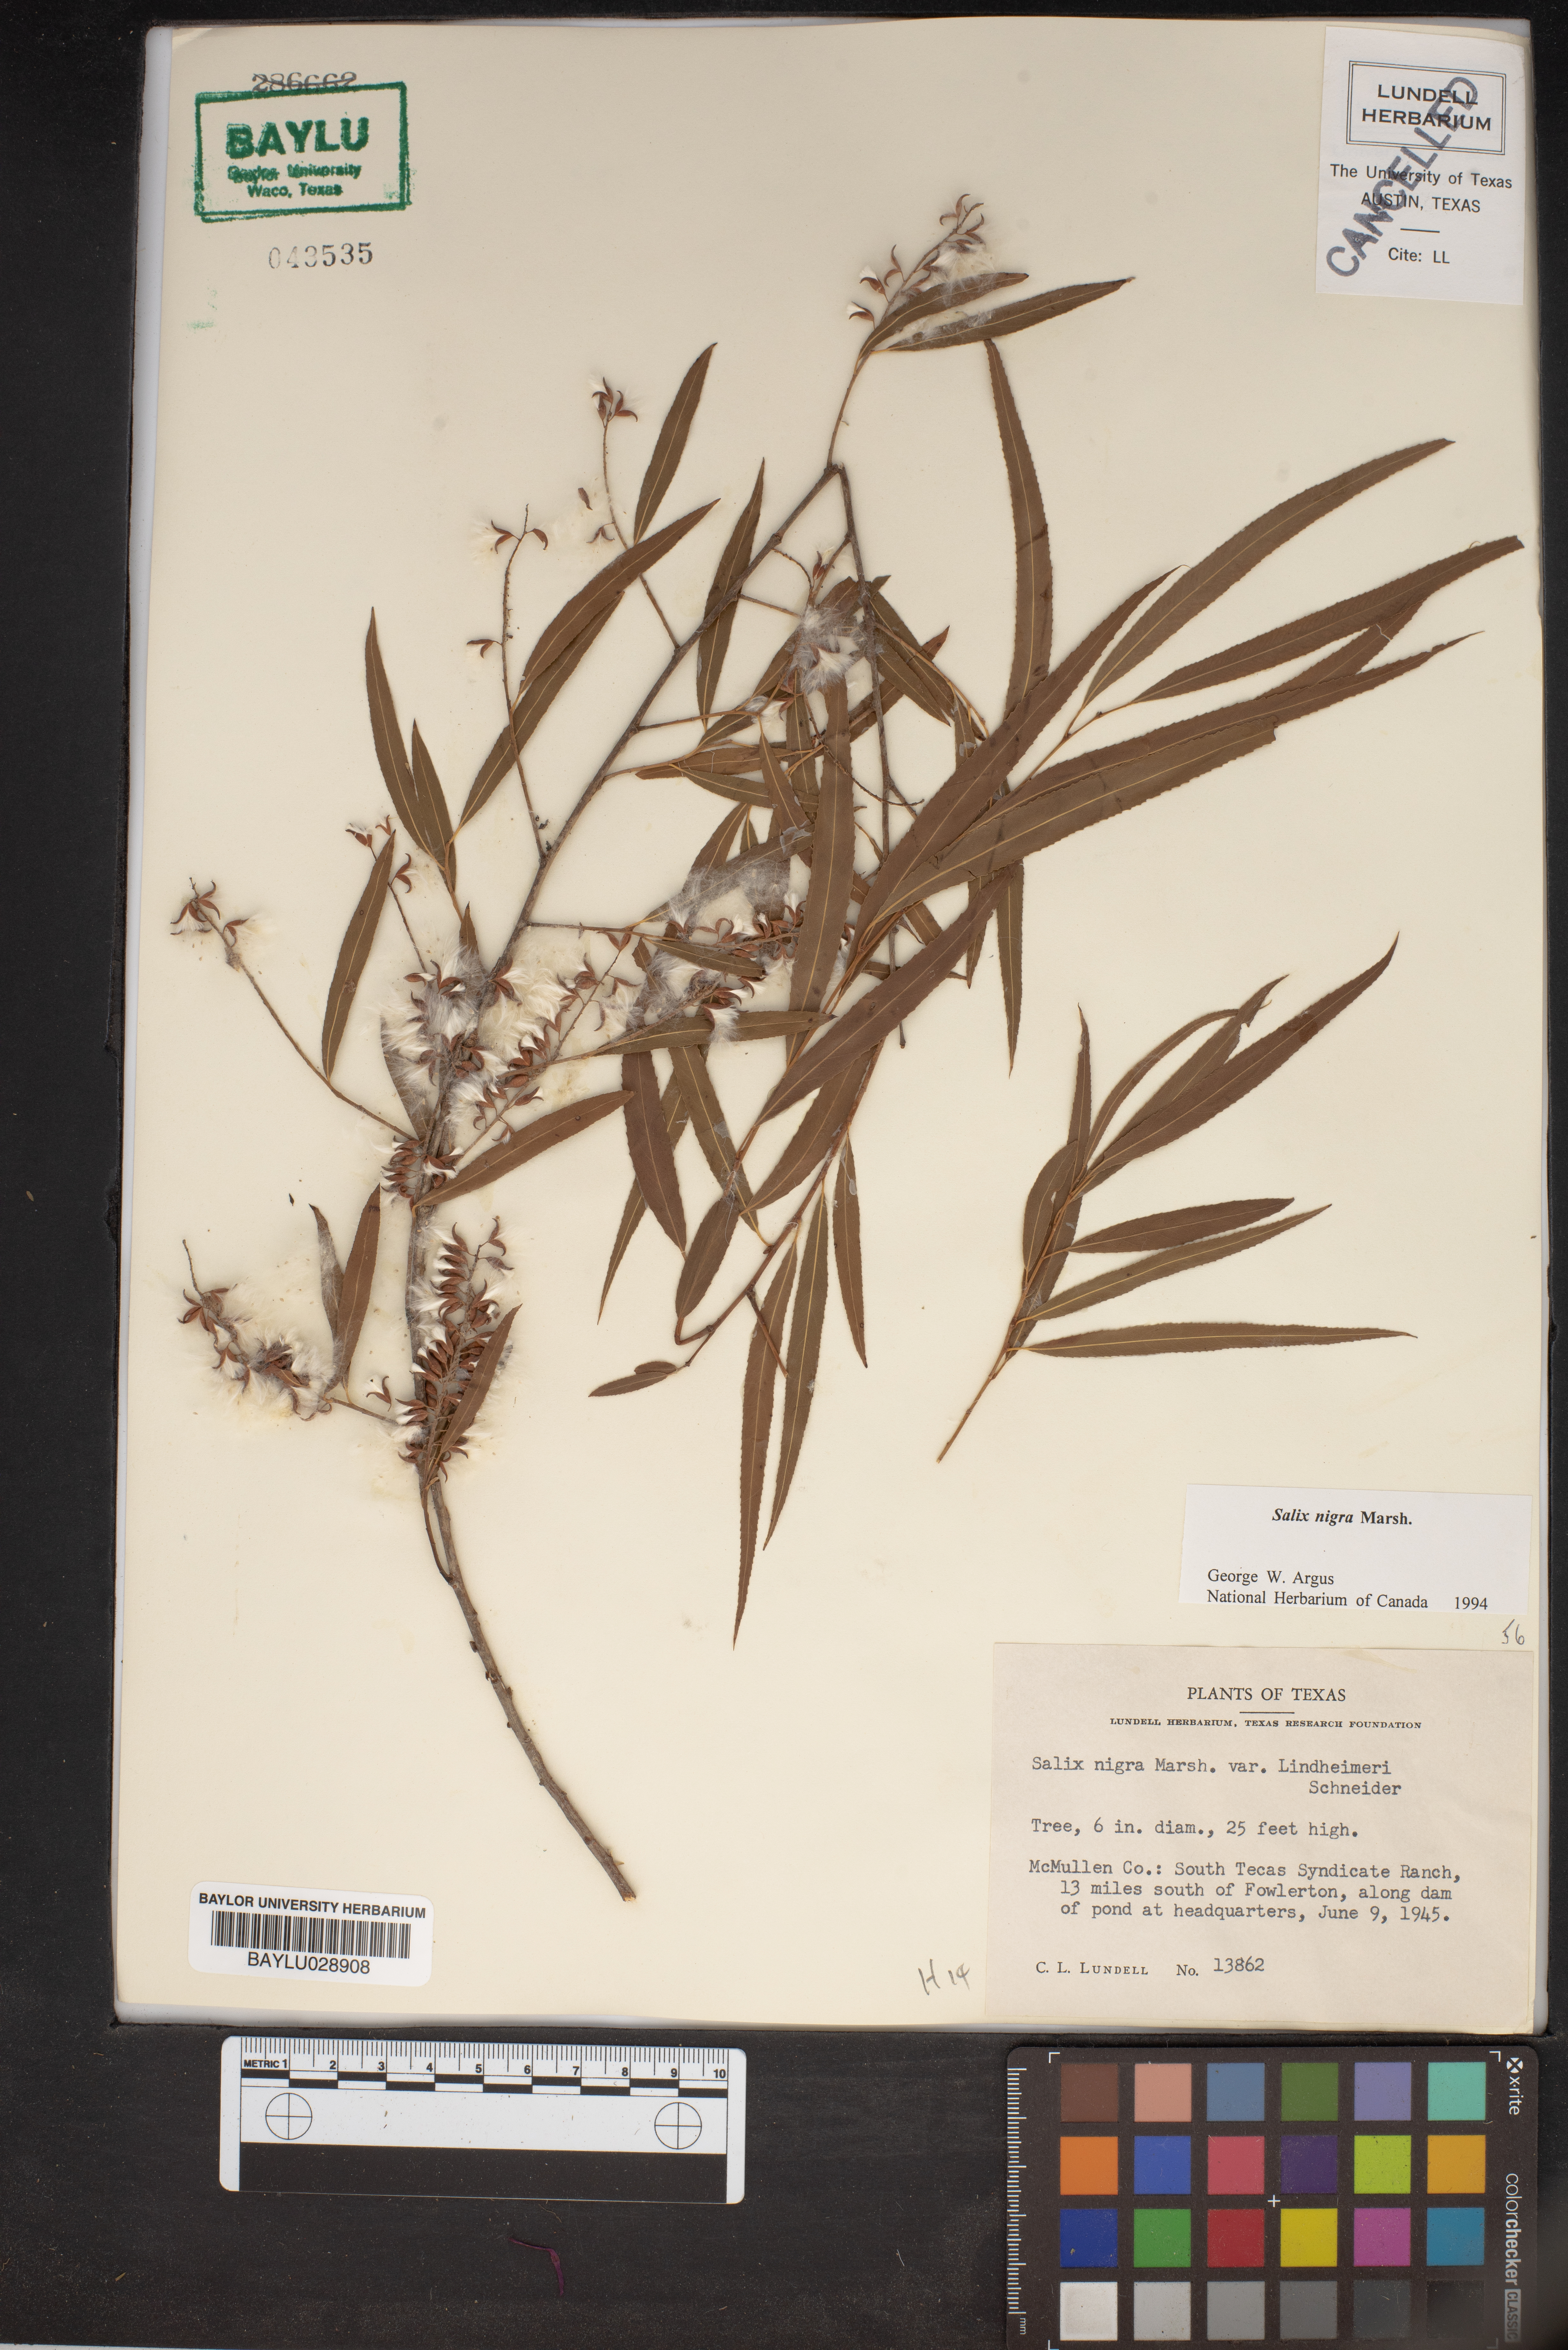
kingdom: Plantae
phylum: Tracheophyta
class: Magnoliopsida
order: Malpighiales
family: Salicaceae
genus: Salix
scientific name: Salix nigra
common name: Black willow
